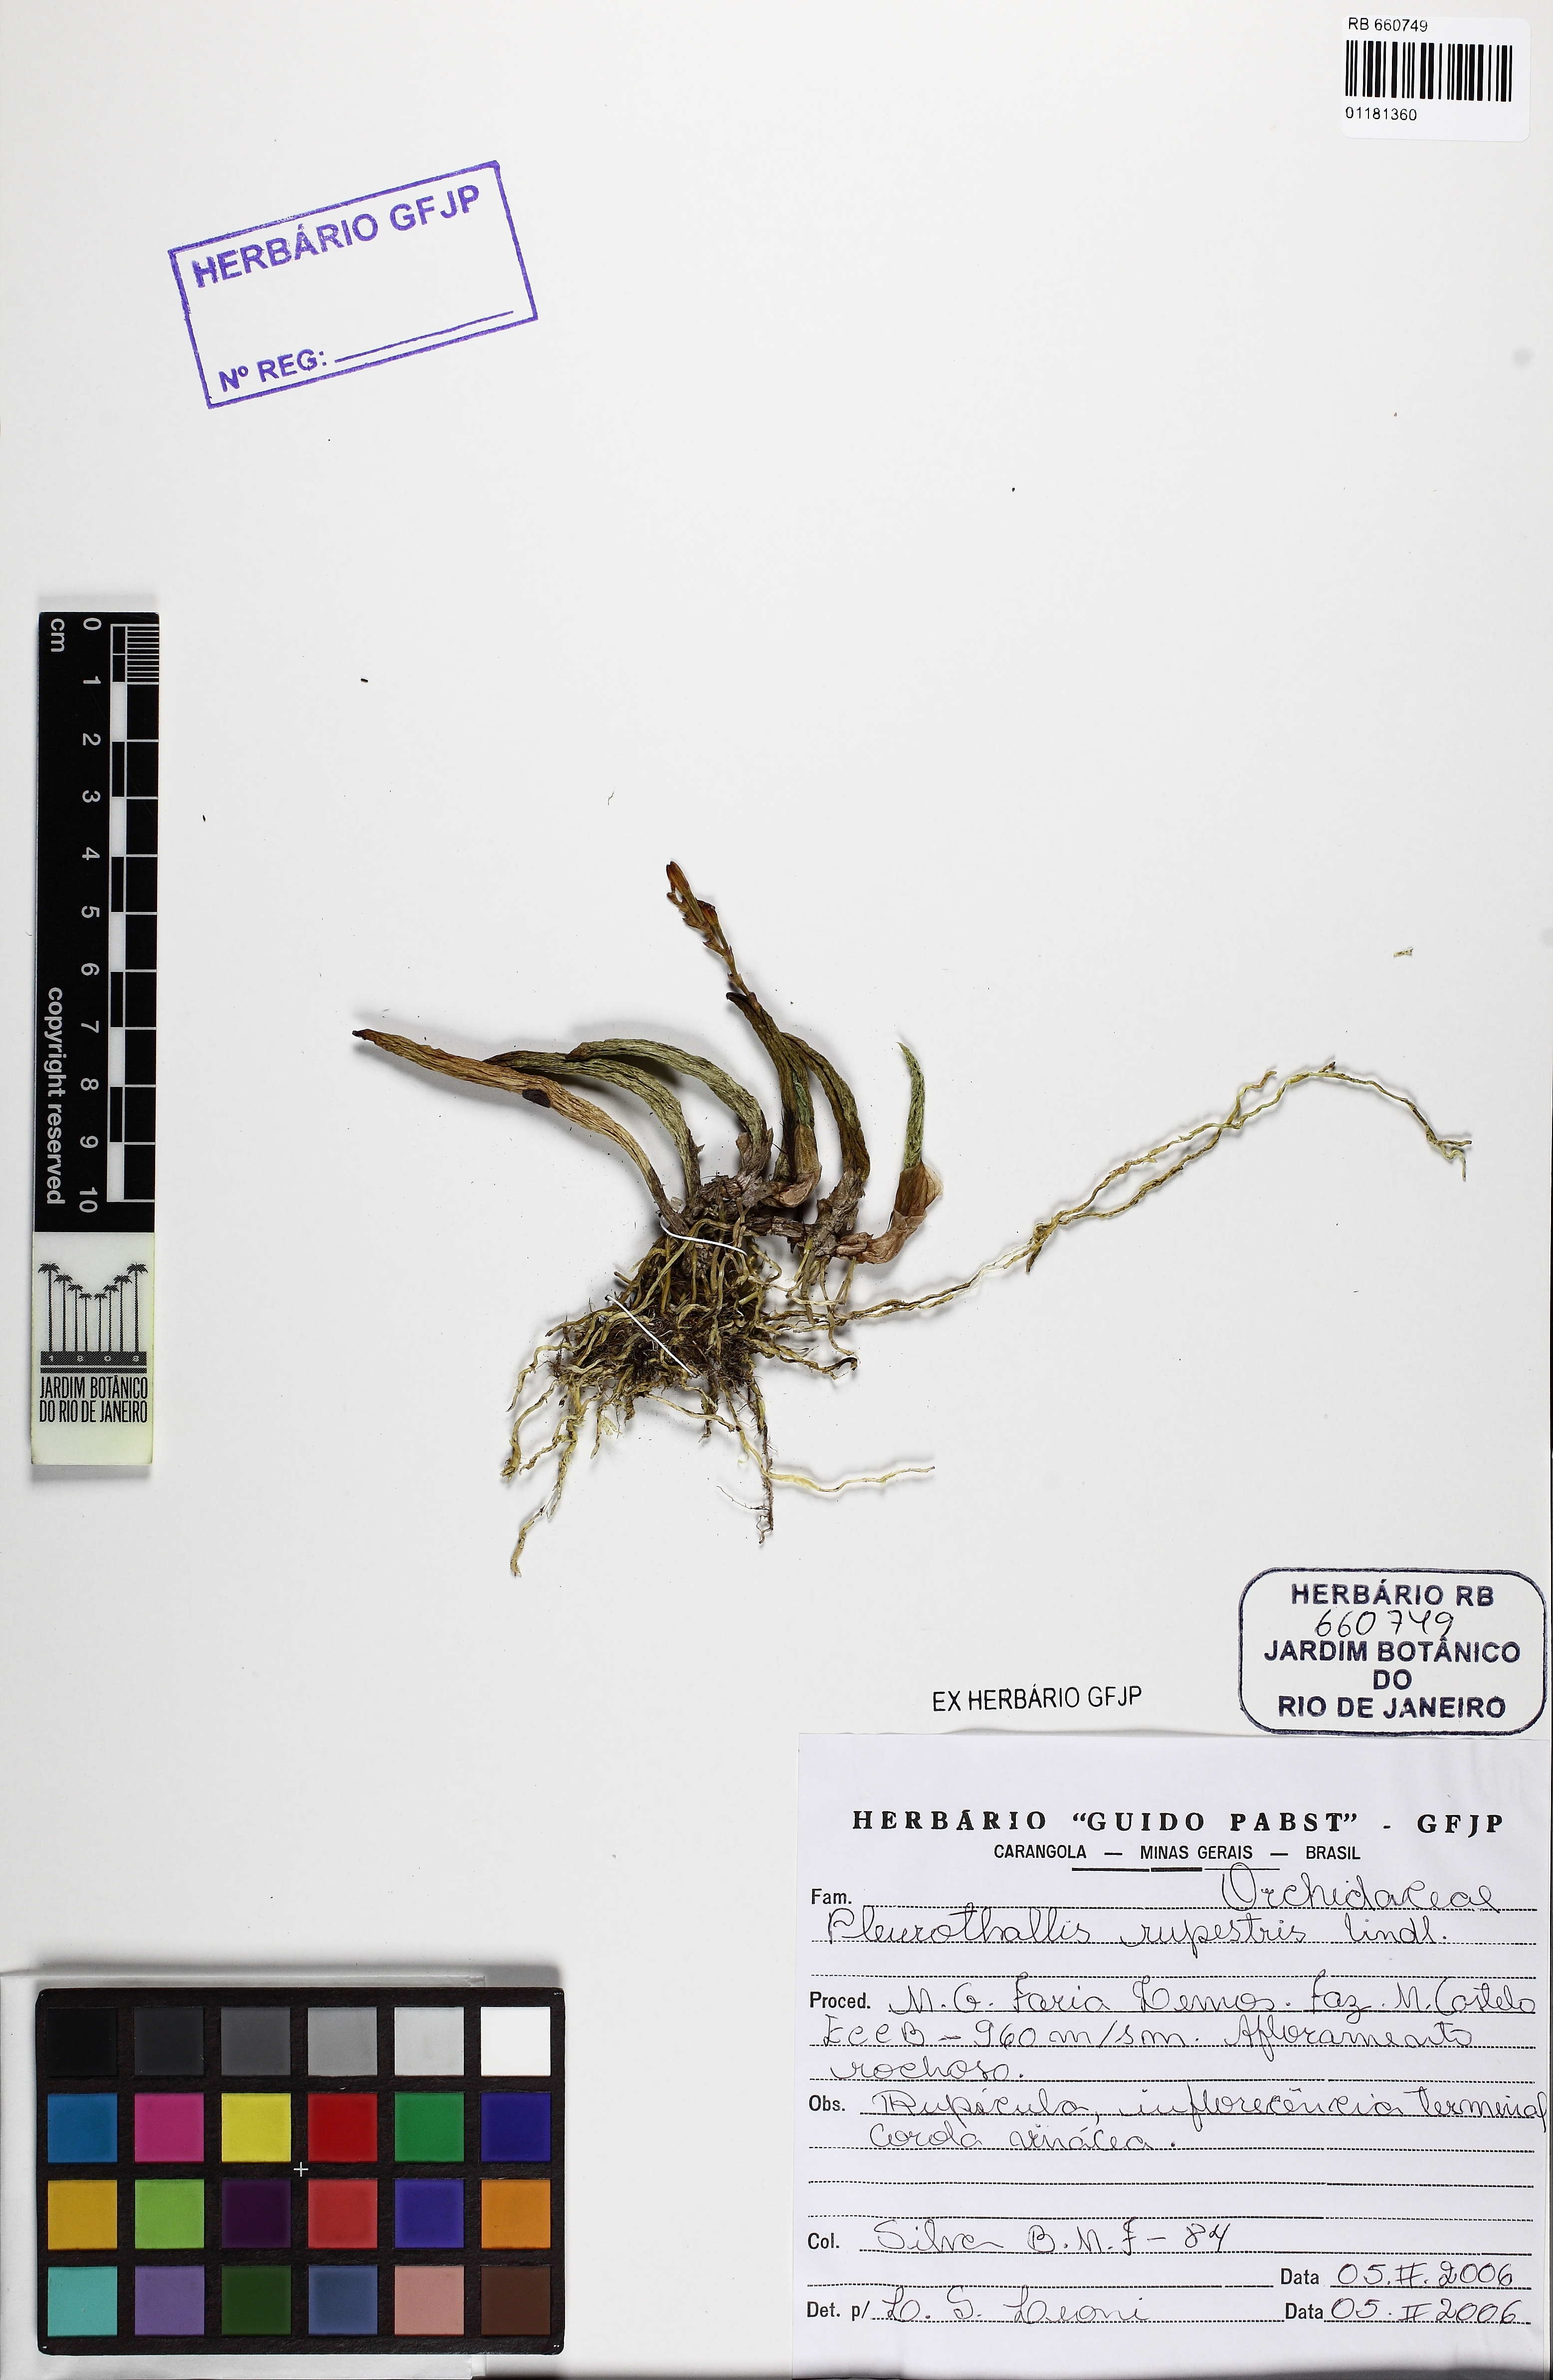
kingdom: Plantae
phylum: Tracheophyta
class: Liliopsida
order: Asparagales
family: Orchidaceae
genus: Acianthera
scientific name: Acianthera teres
